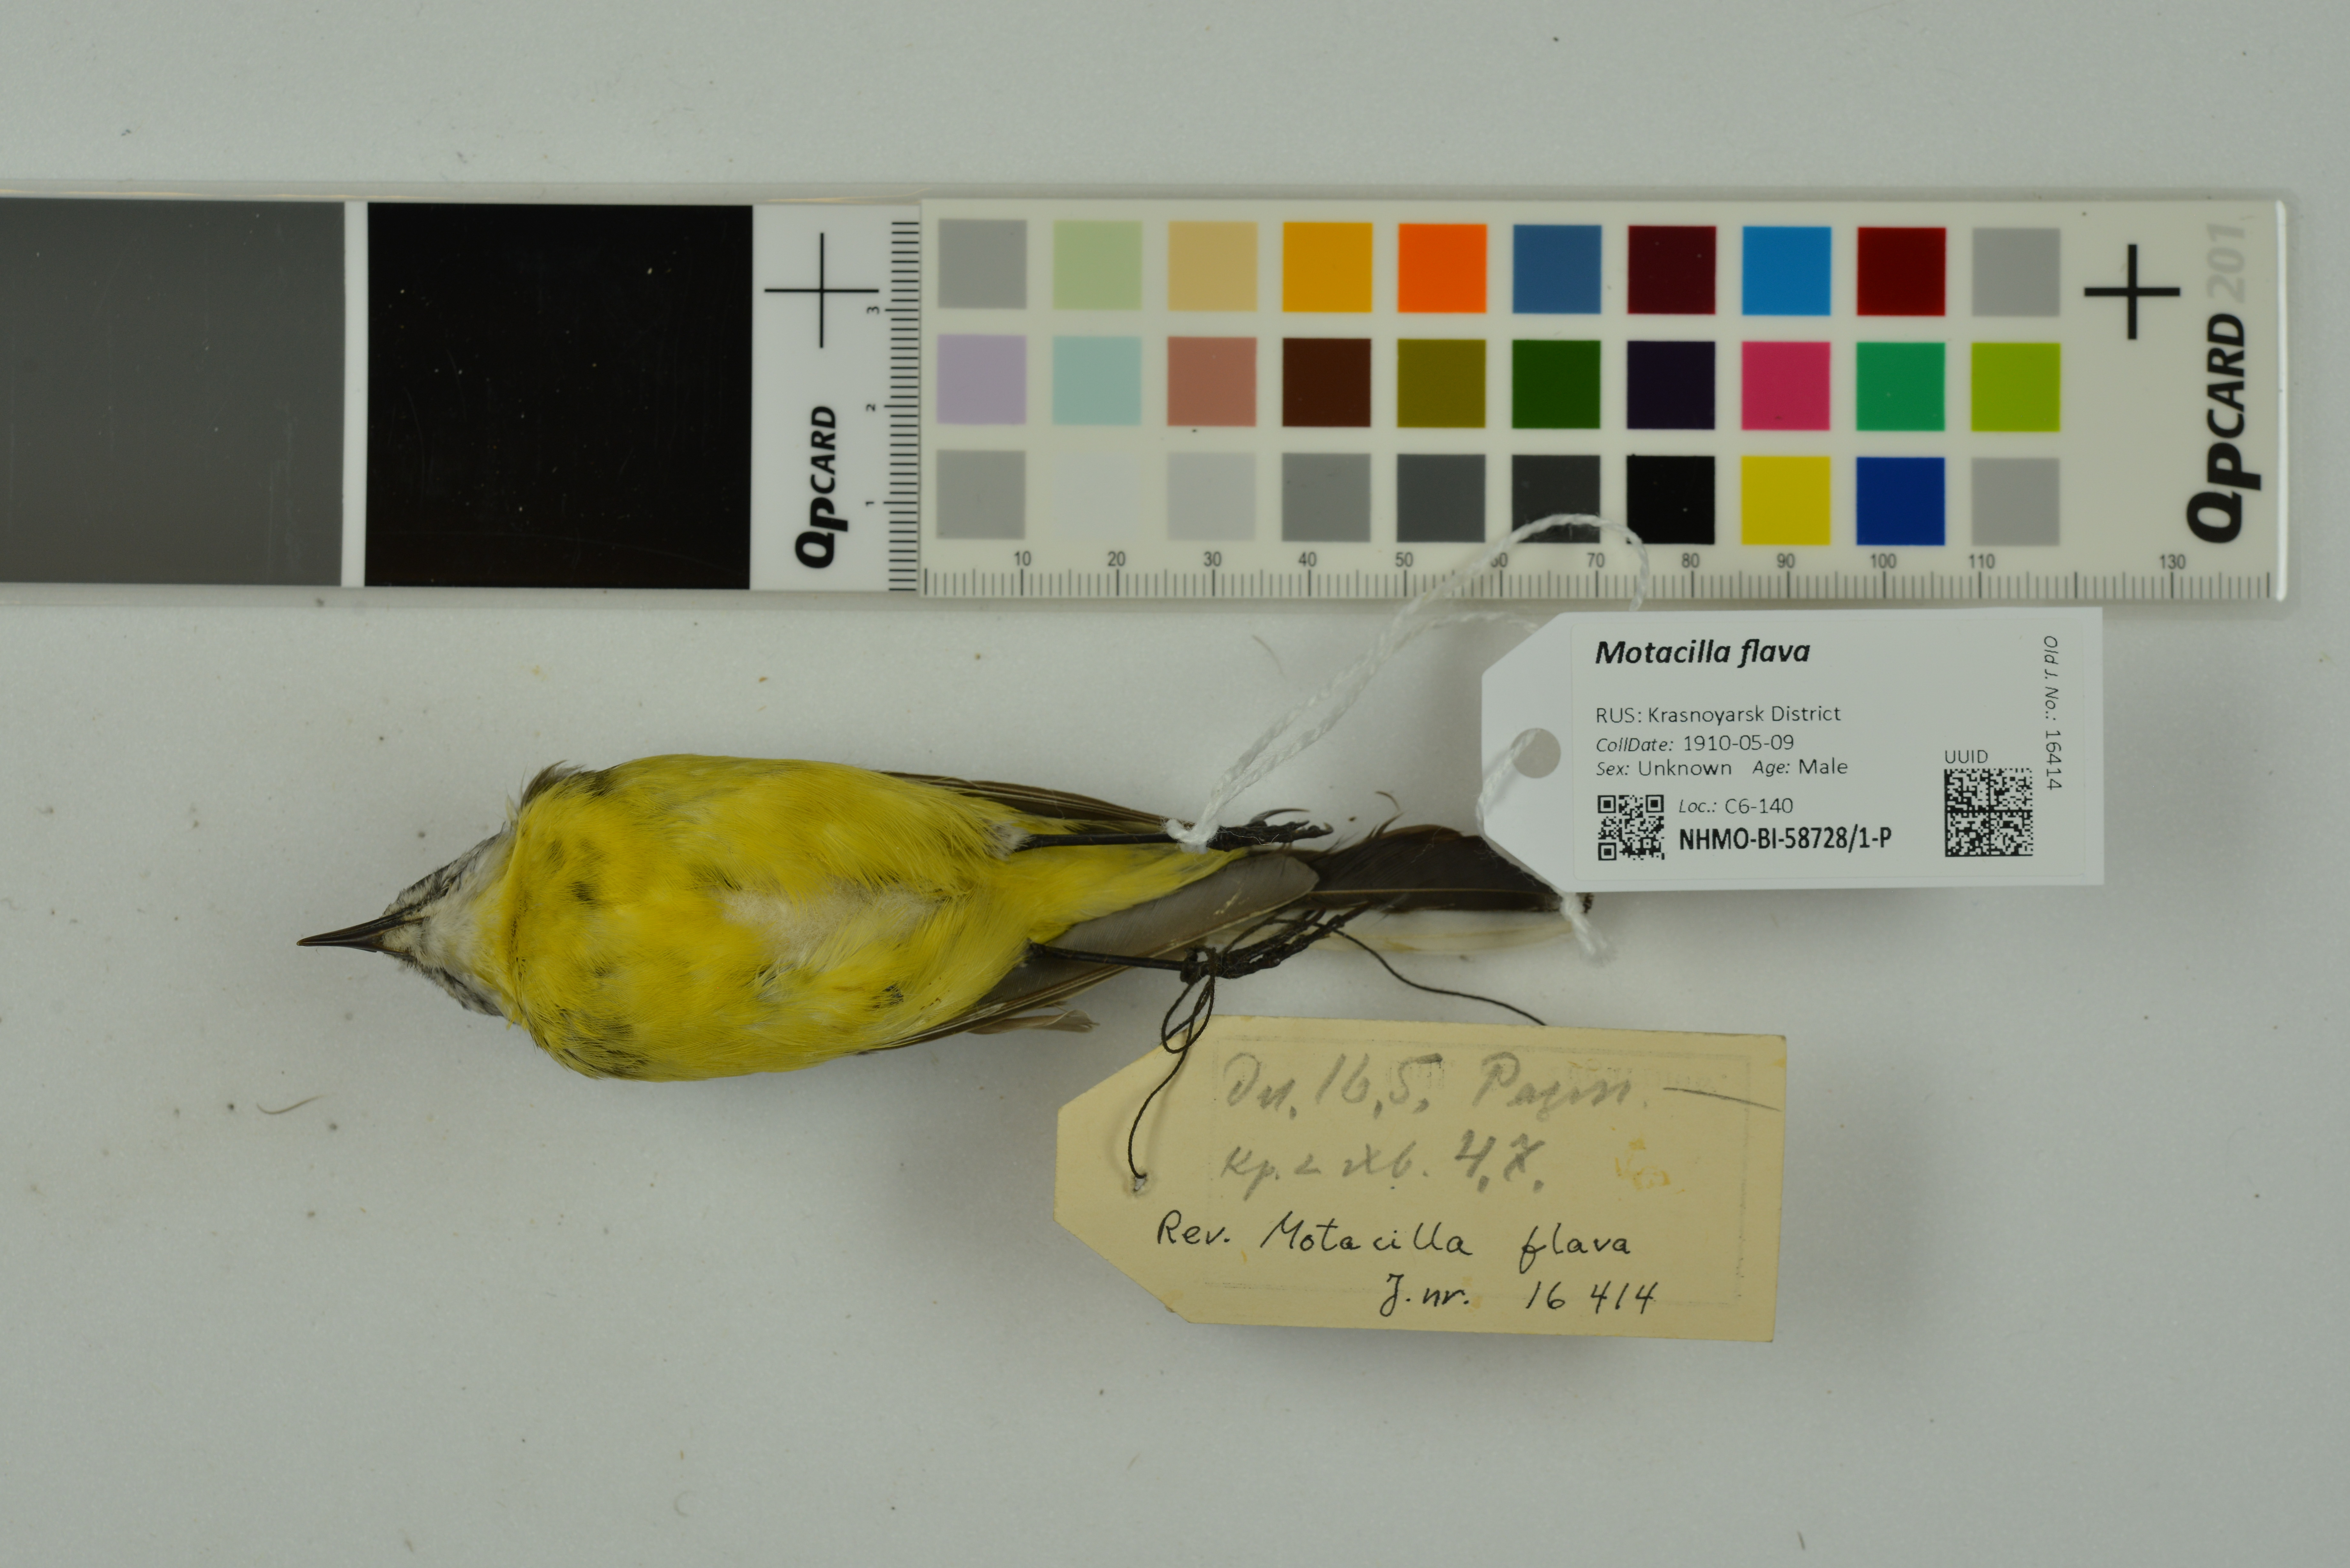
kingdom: Animalia
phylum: Chordata
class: Aves
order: Passeriformes
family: Motacillidae
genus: Motacilla
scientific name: Motacilla flava
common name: Western yellow wagtail
